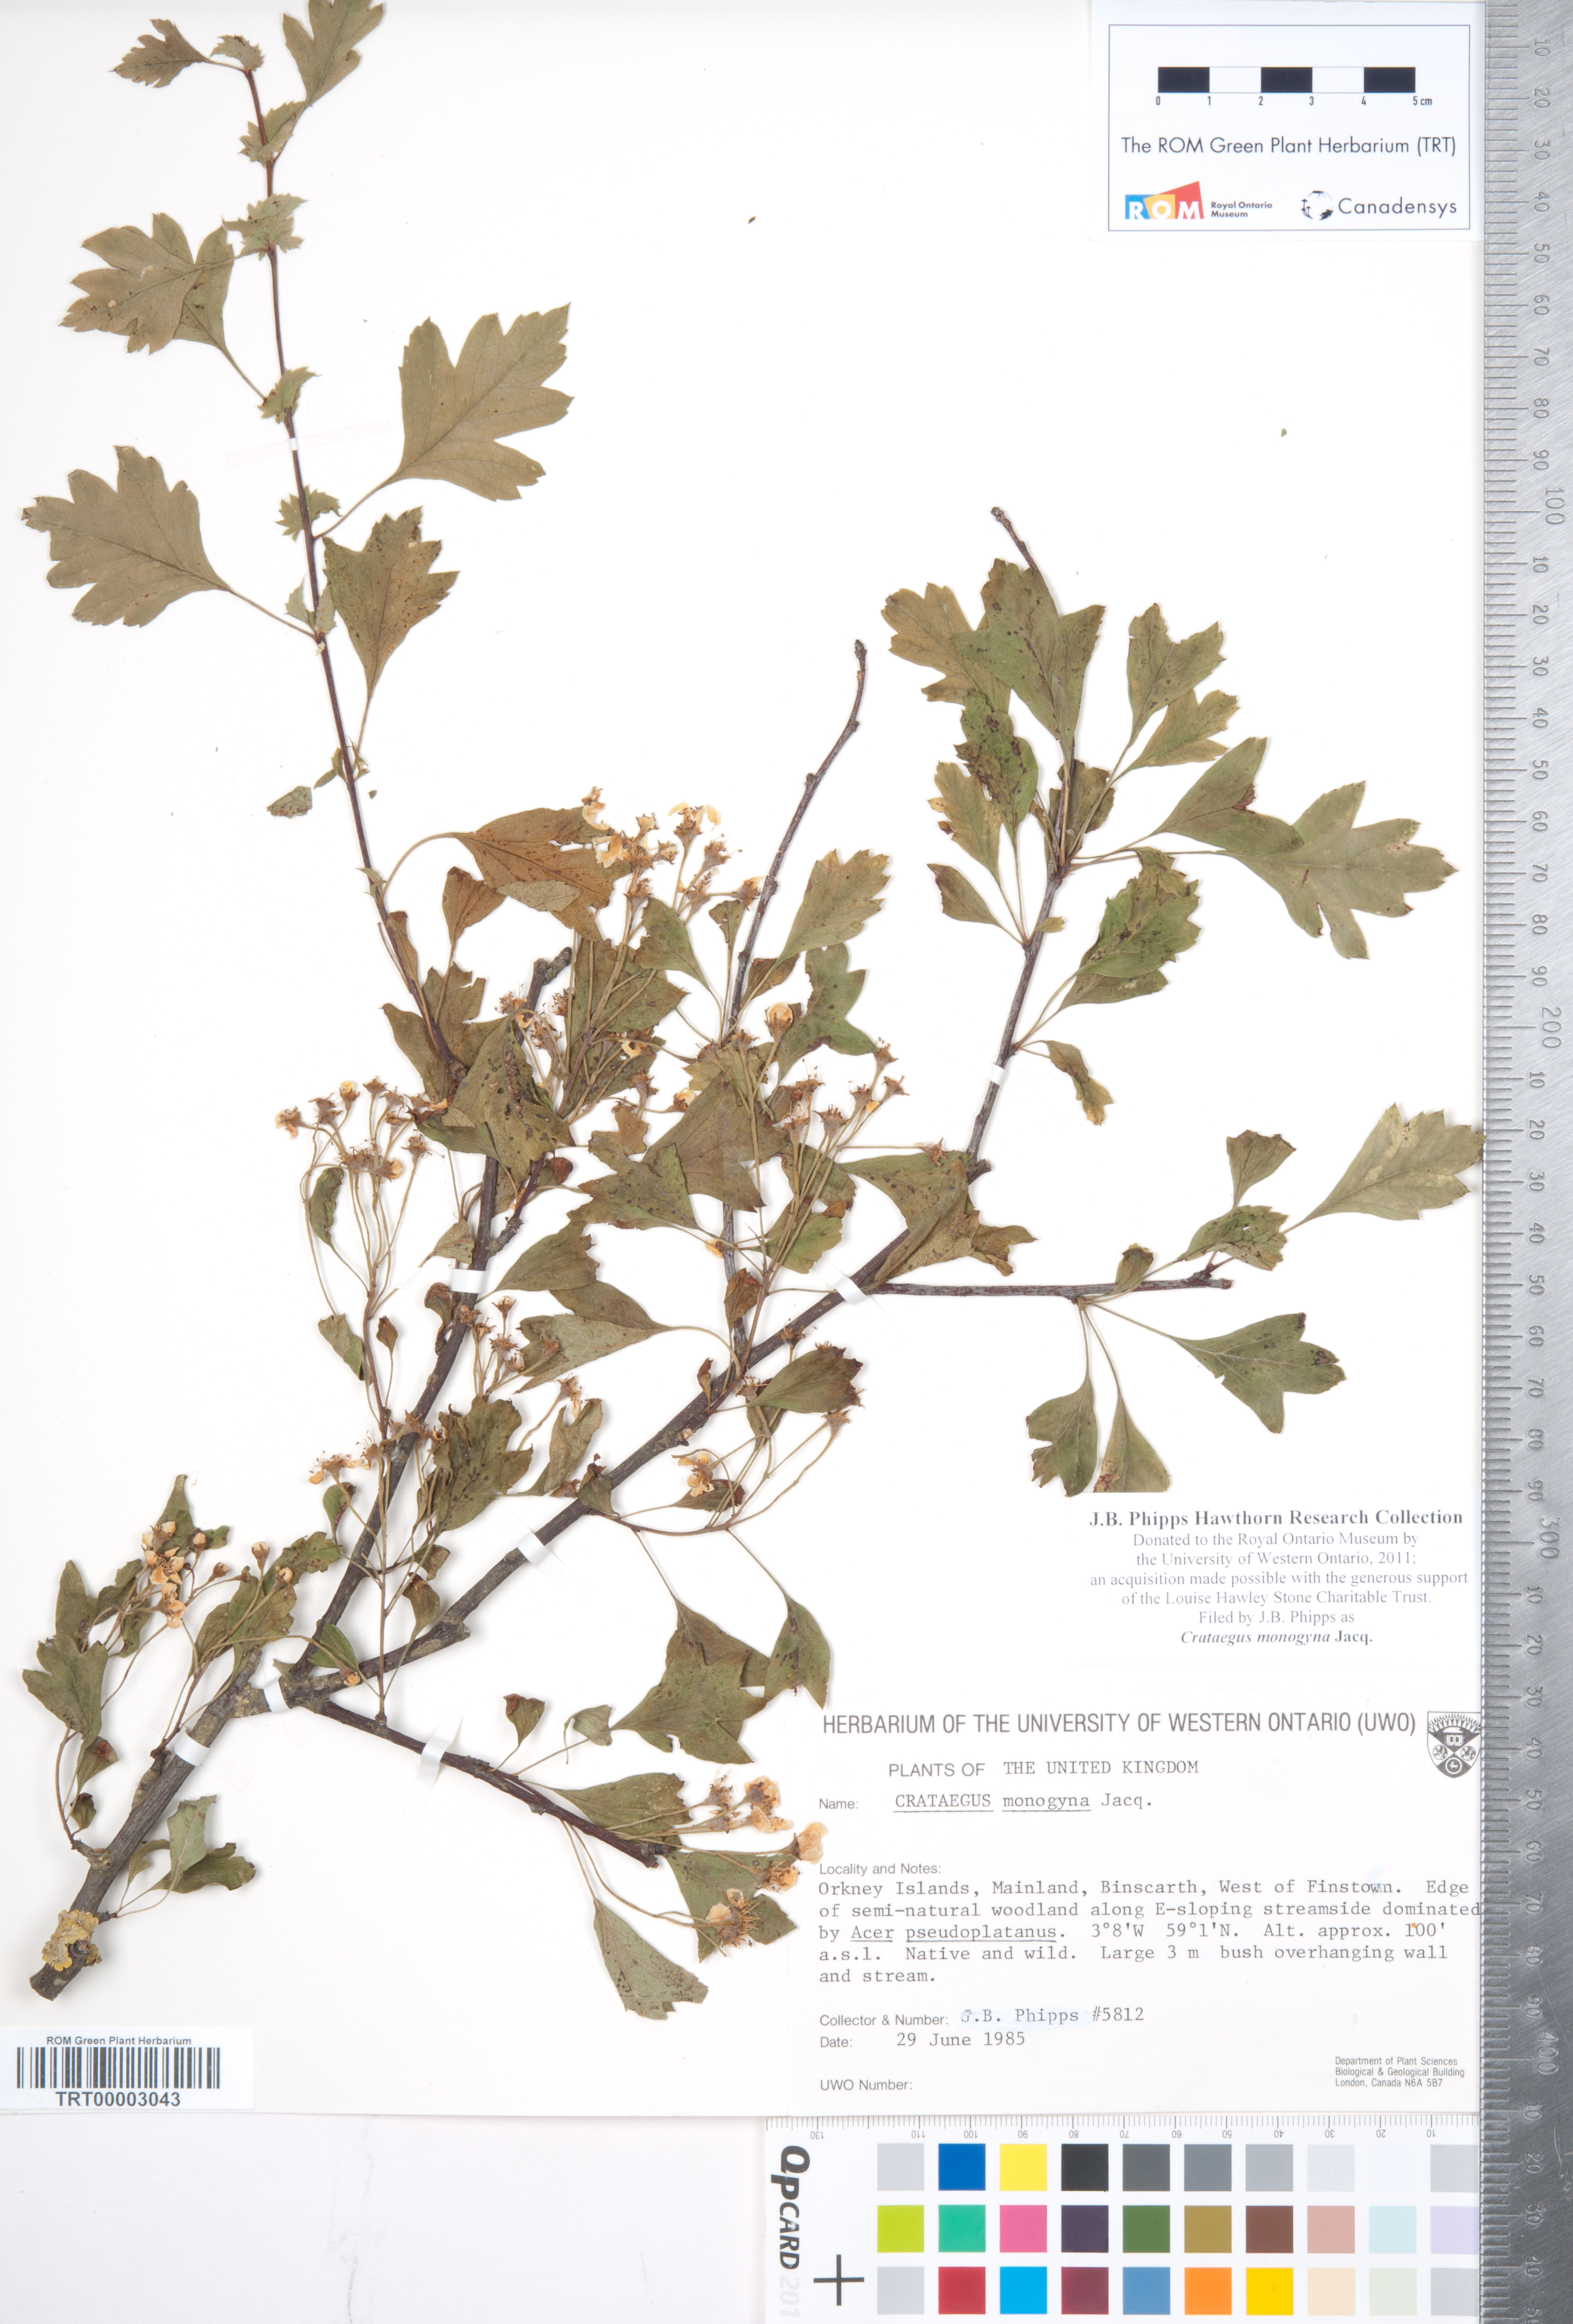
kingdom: Plantae
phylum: Tracheophyta
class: Magnoliopsida
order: Rosales
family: Rosaceae
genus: Crataegus
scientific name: Crataegus monogyna
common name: Hawthorn
